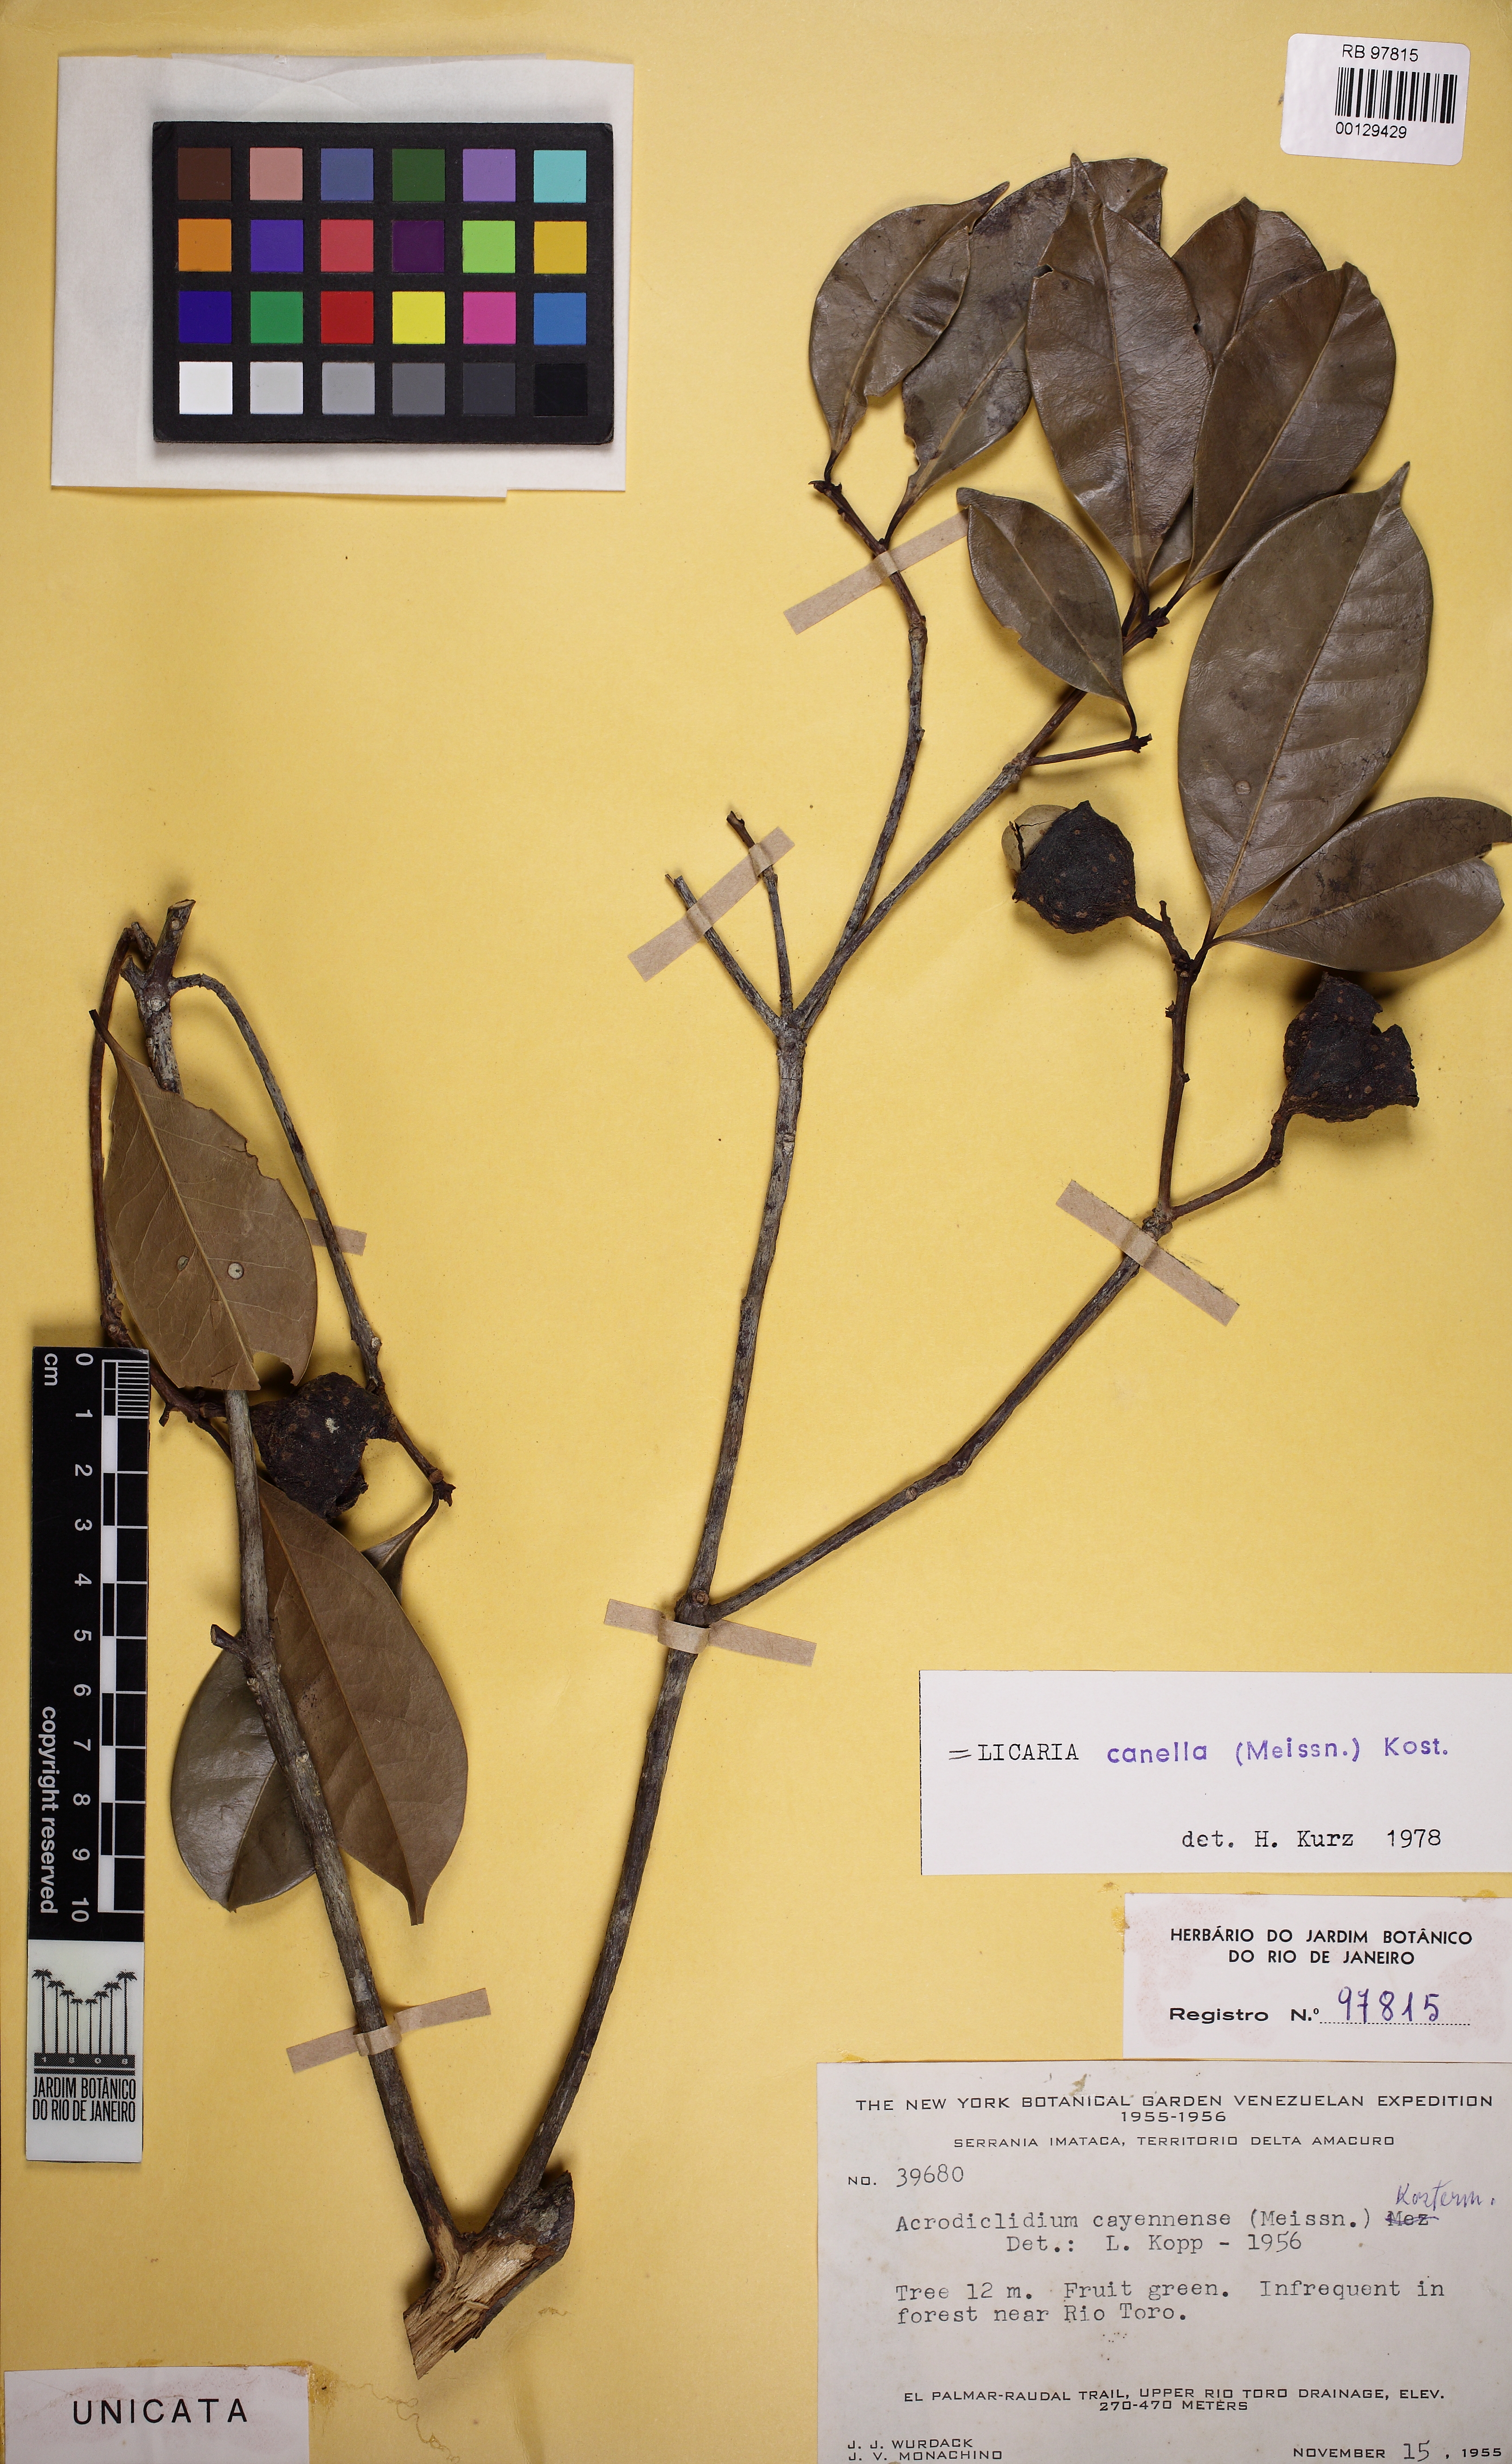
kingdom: Plantae
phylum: Tracheophyta
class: Magnoliopsida
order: Laurales
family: Lauraceae
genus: Licaria
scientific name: Licaria canella
